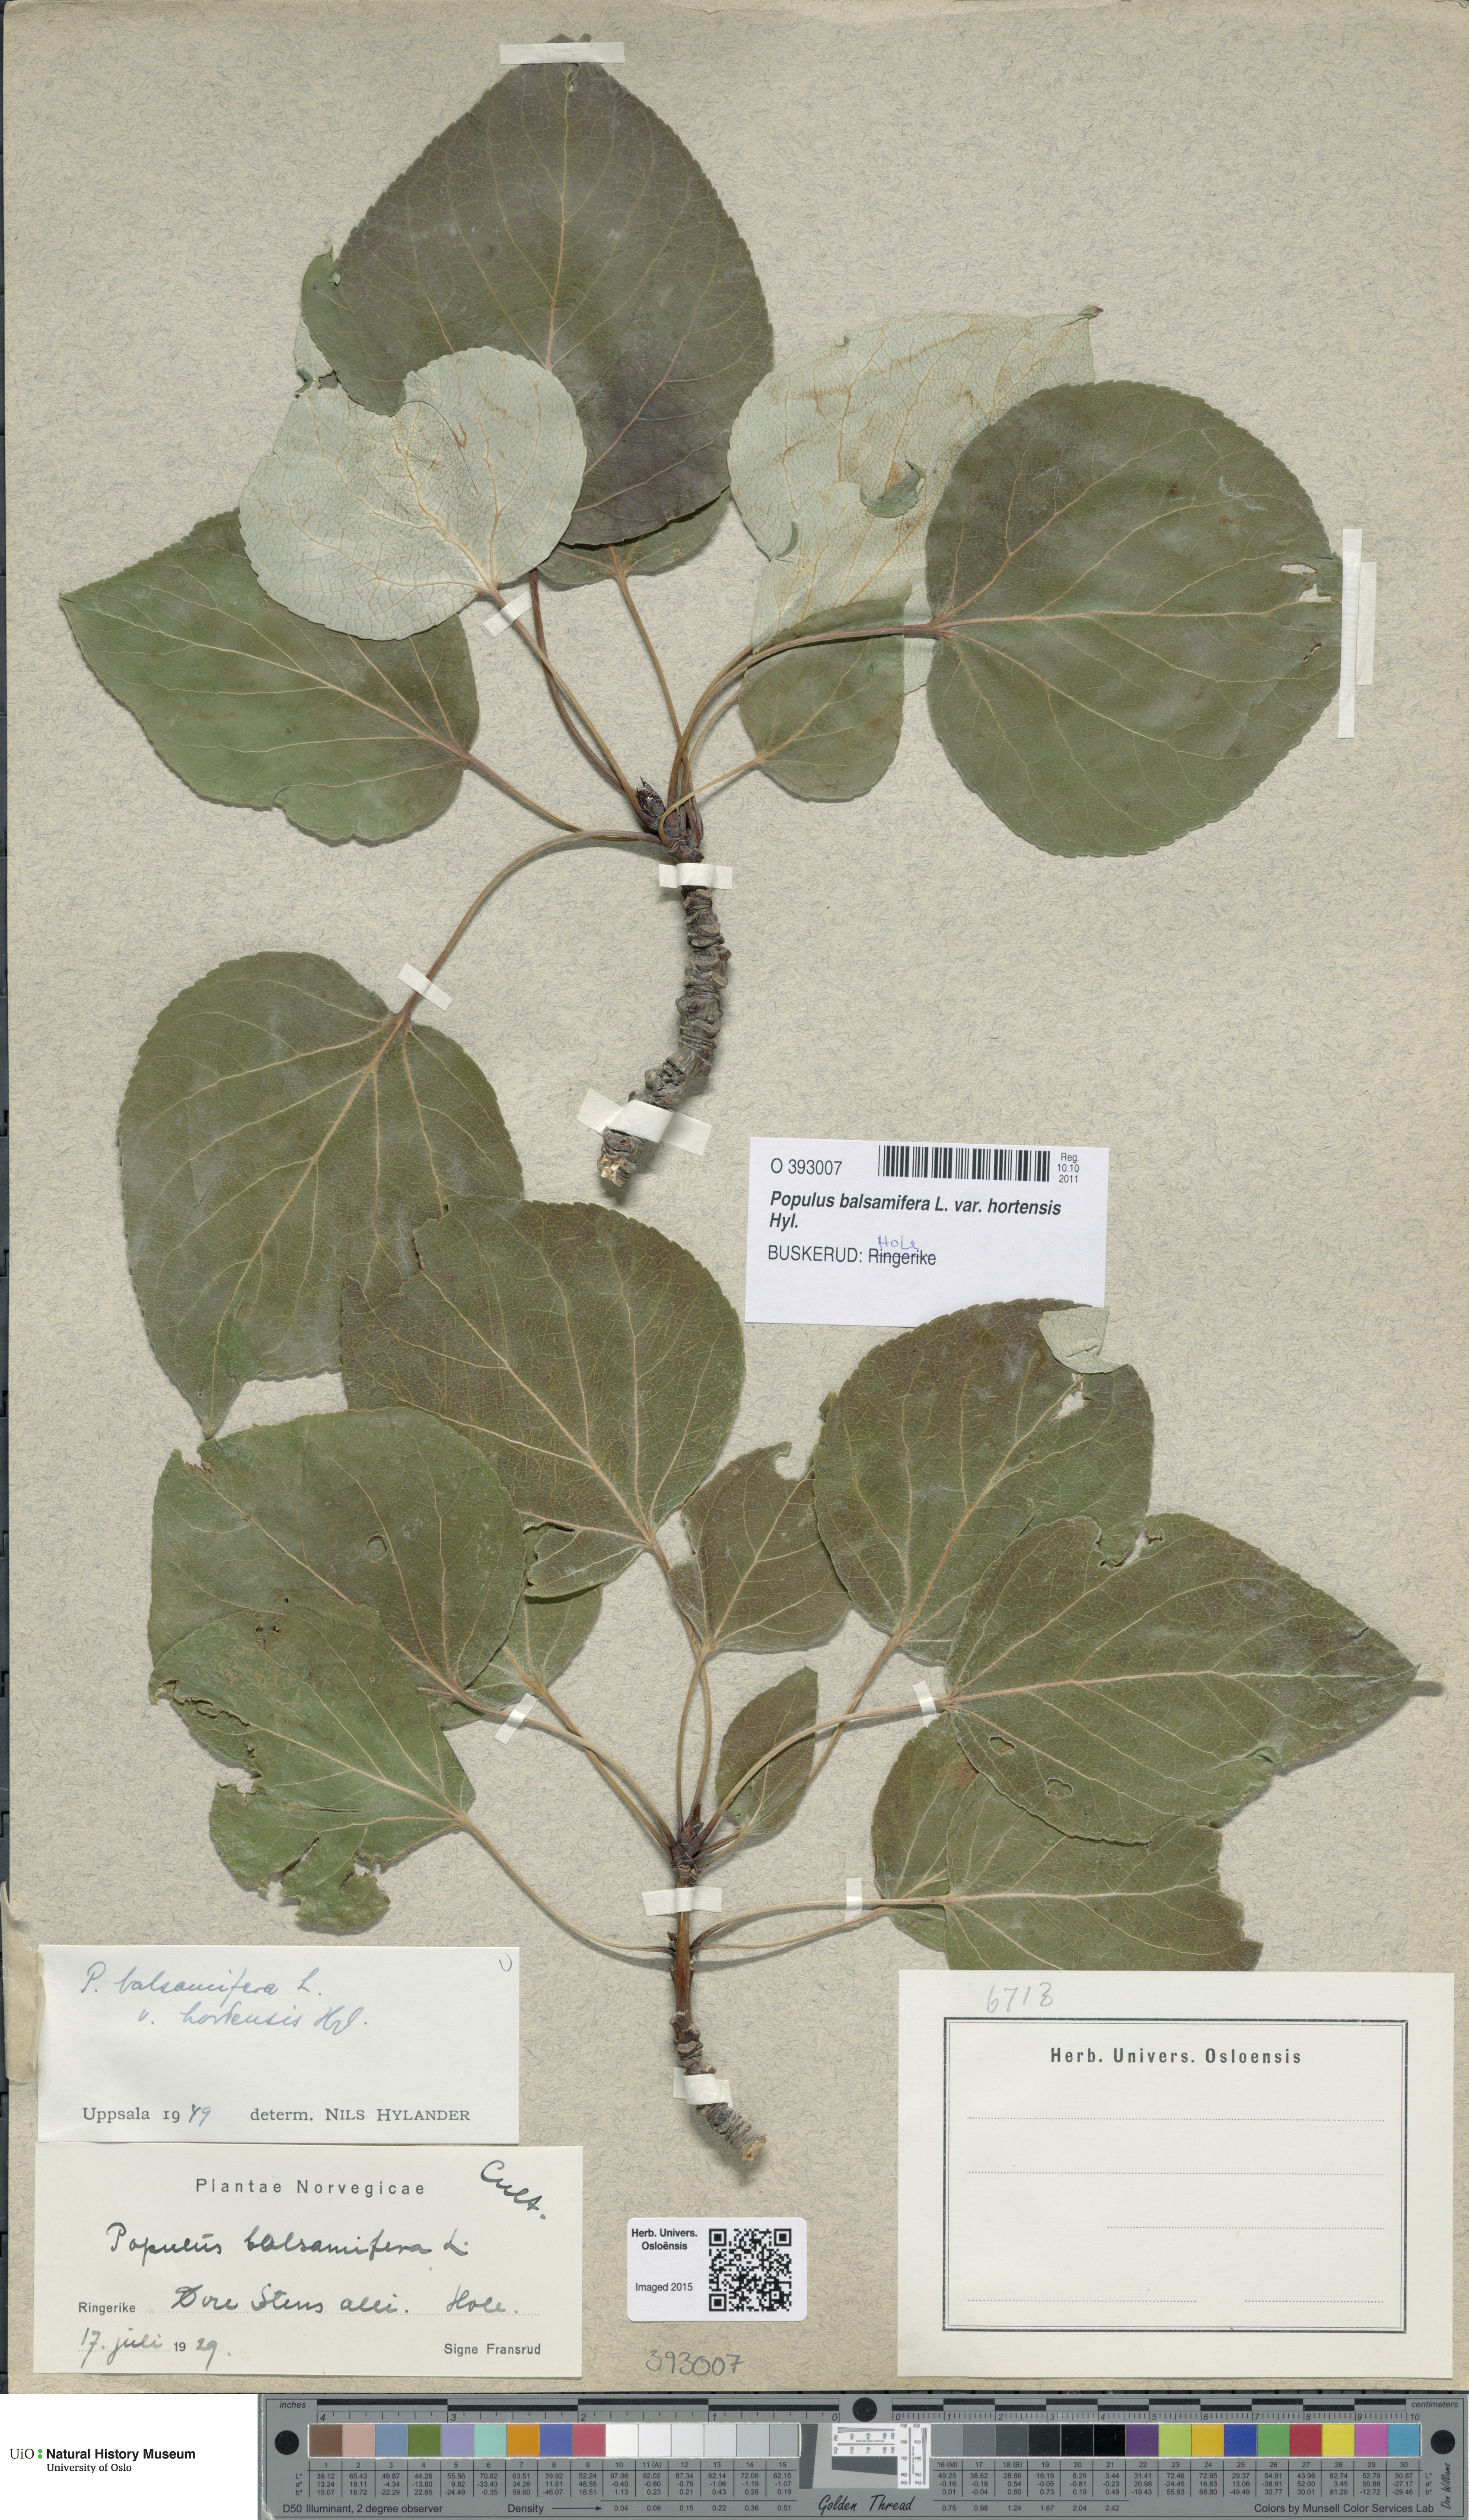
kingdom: Plantae
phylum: Tracheophyta
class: Magnoliopsida
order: Malpighiales
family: Salicaceae
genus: Populus
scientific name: Populus balsamifera
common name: Balsam poplar
